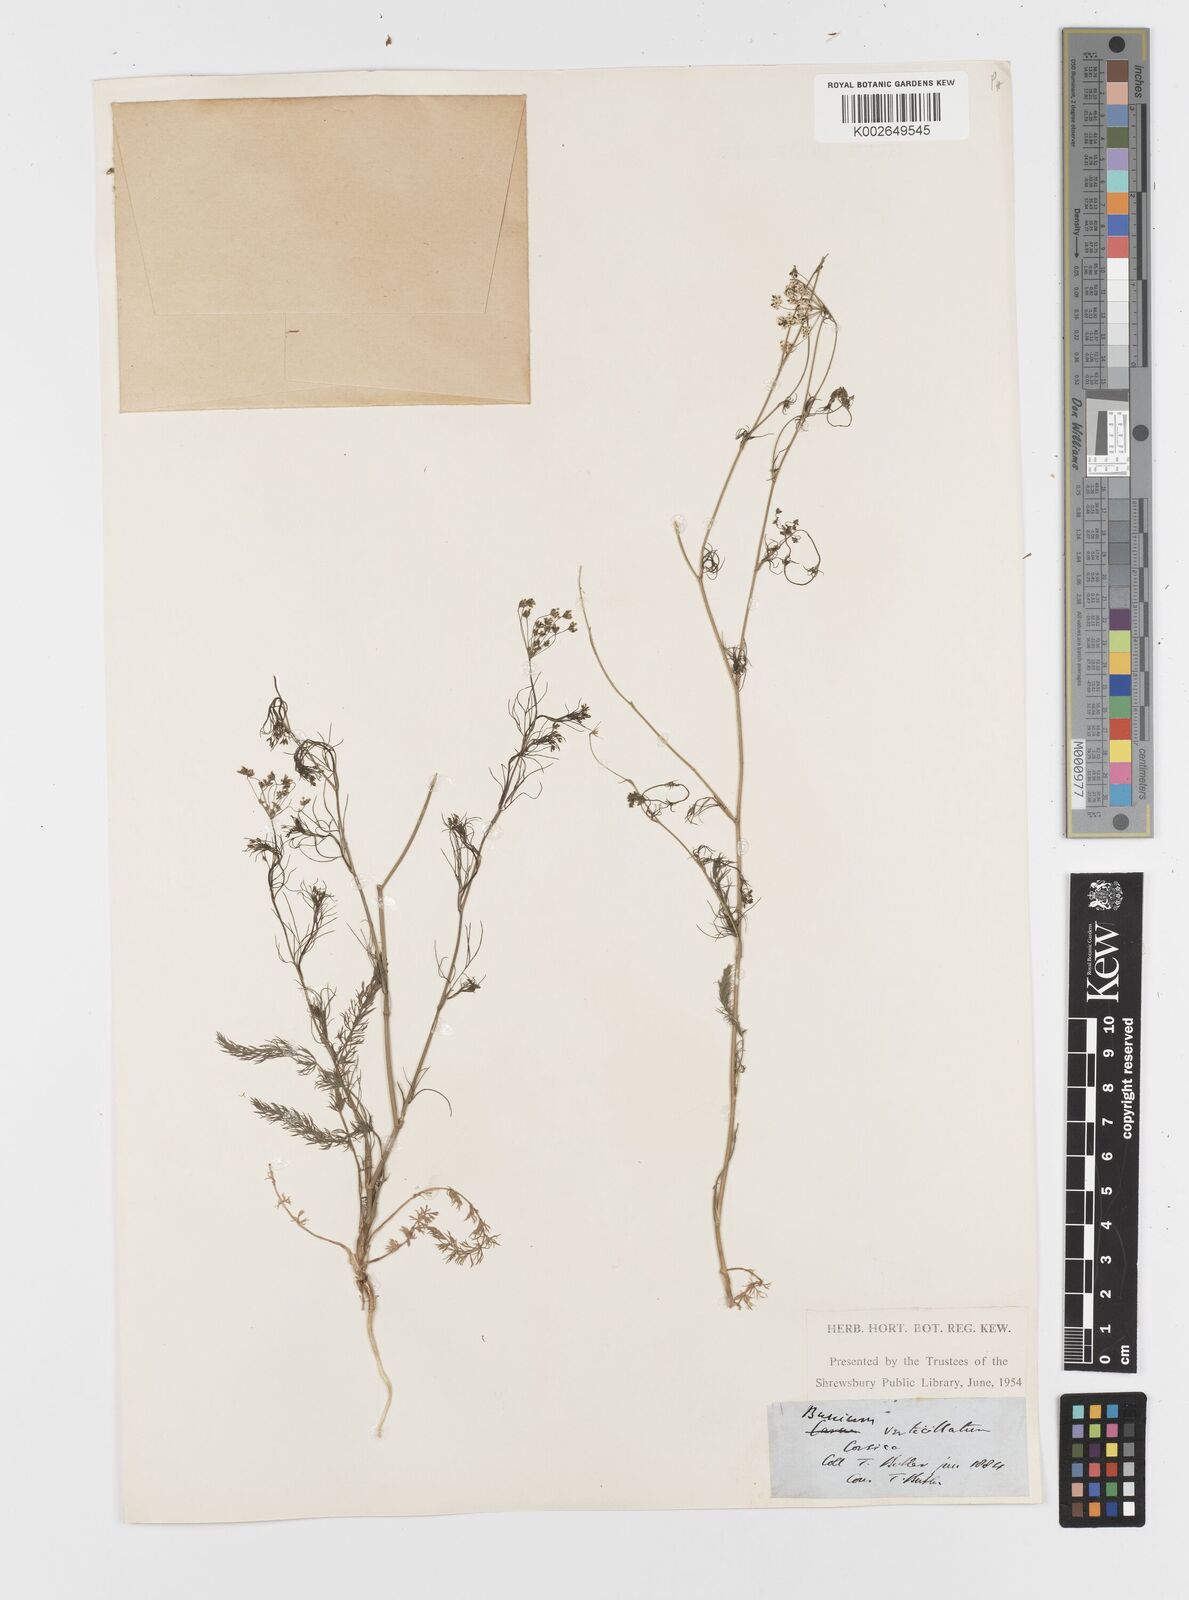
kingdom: Plantae
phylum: Tracheophyta
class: Magnoliopsida
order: Apiales
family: Apiaceae
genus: Trocdaris
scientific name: Trocdaris verticillatum
